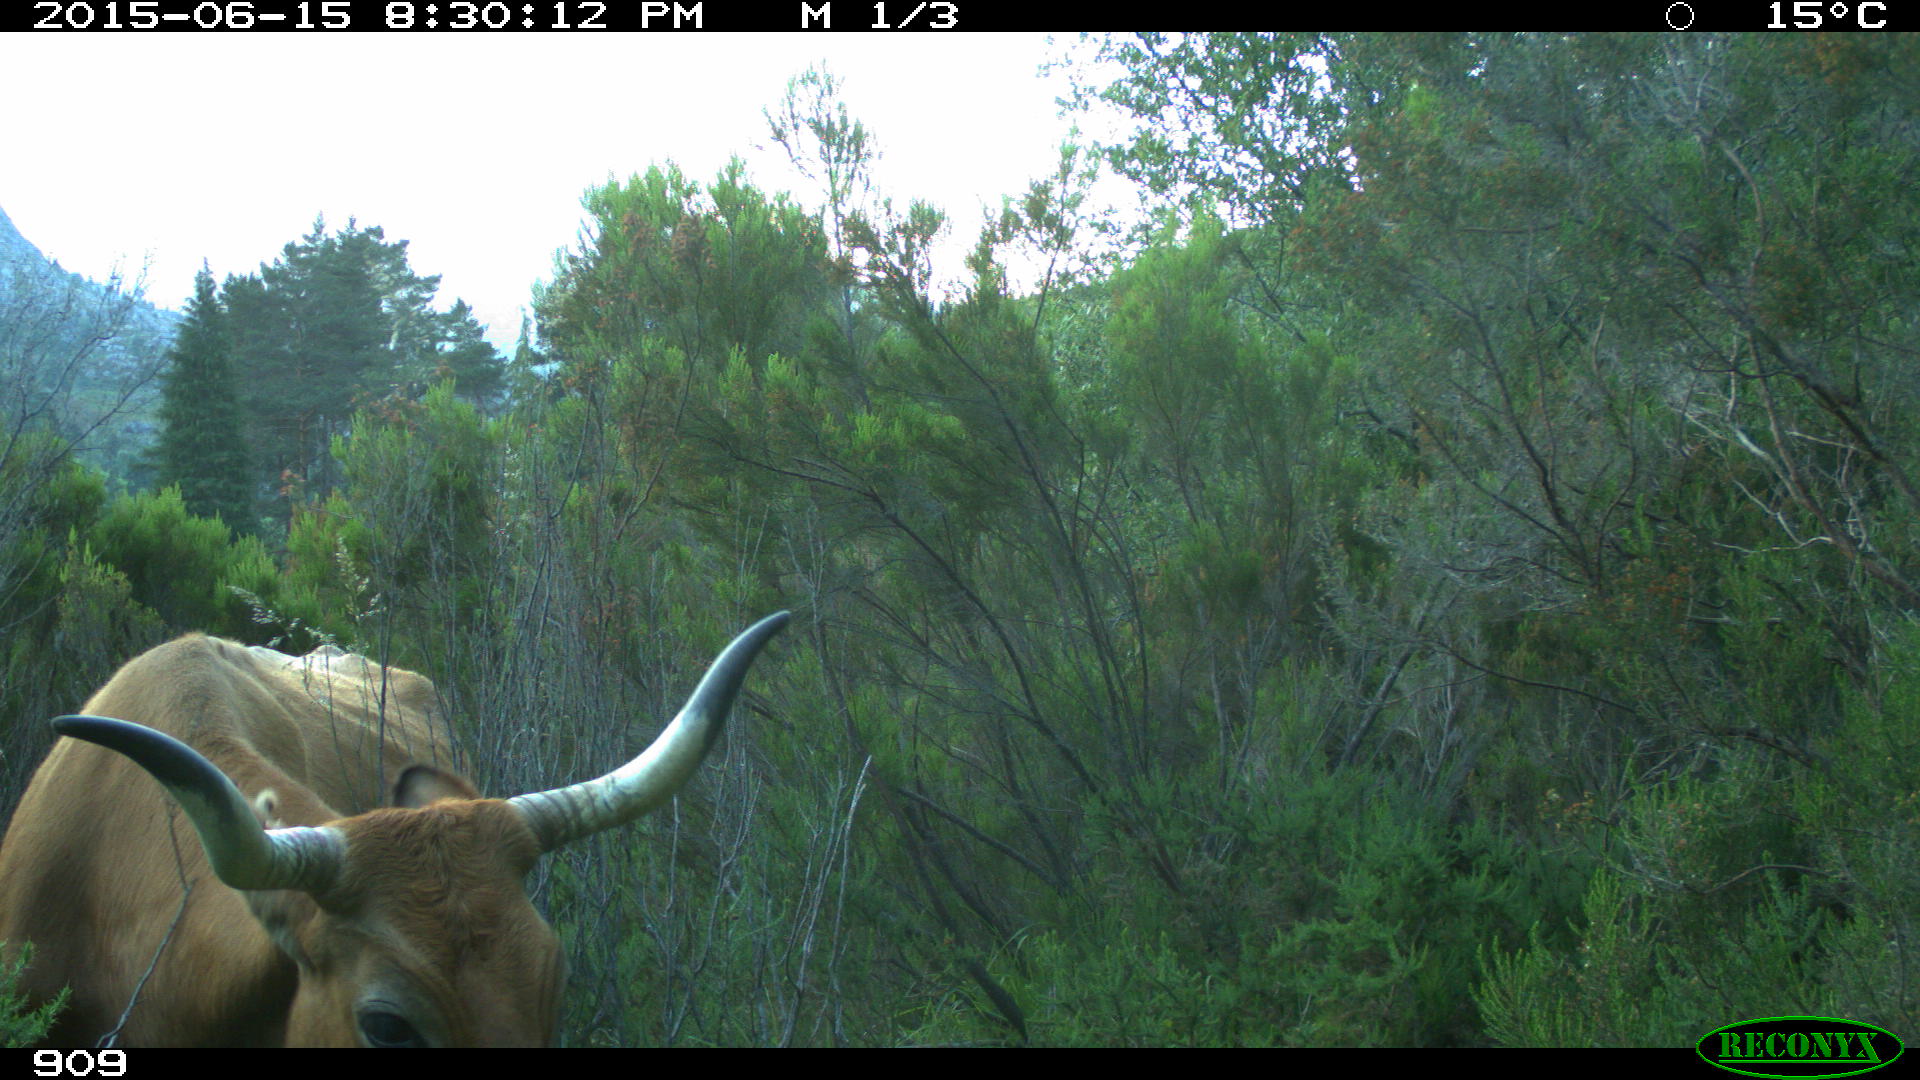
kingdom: Animalia
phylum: Chordata
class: Mammalia
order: Artiodactyla
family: Bovidae
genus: Bos
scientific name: Bos taurus
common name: Domesticated cattle
